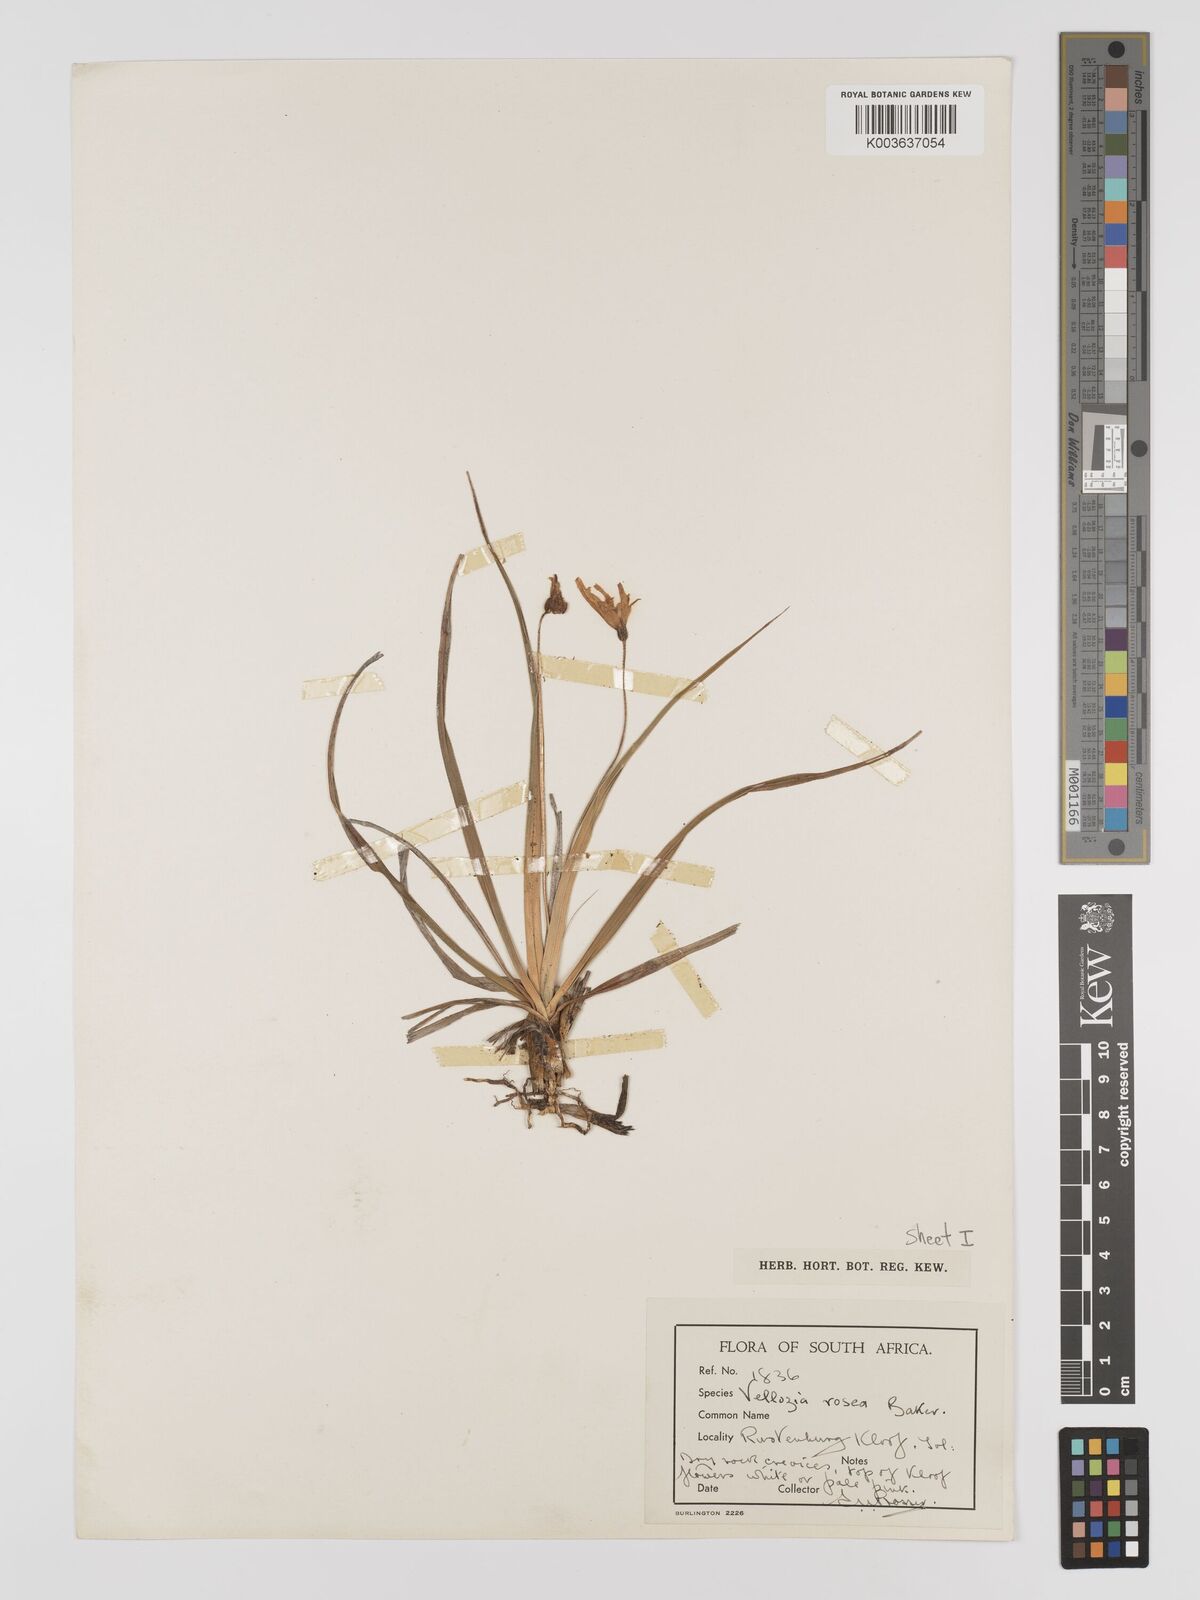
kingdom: Plantae
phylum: Tracheophyta
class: Liliopsida
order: Pandanales
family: Velloziaceae
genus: Xerophyta
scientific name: Xerophyta schlechteri
